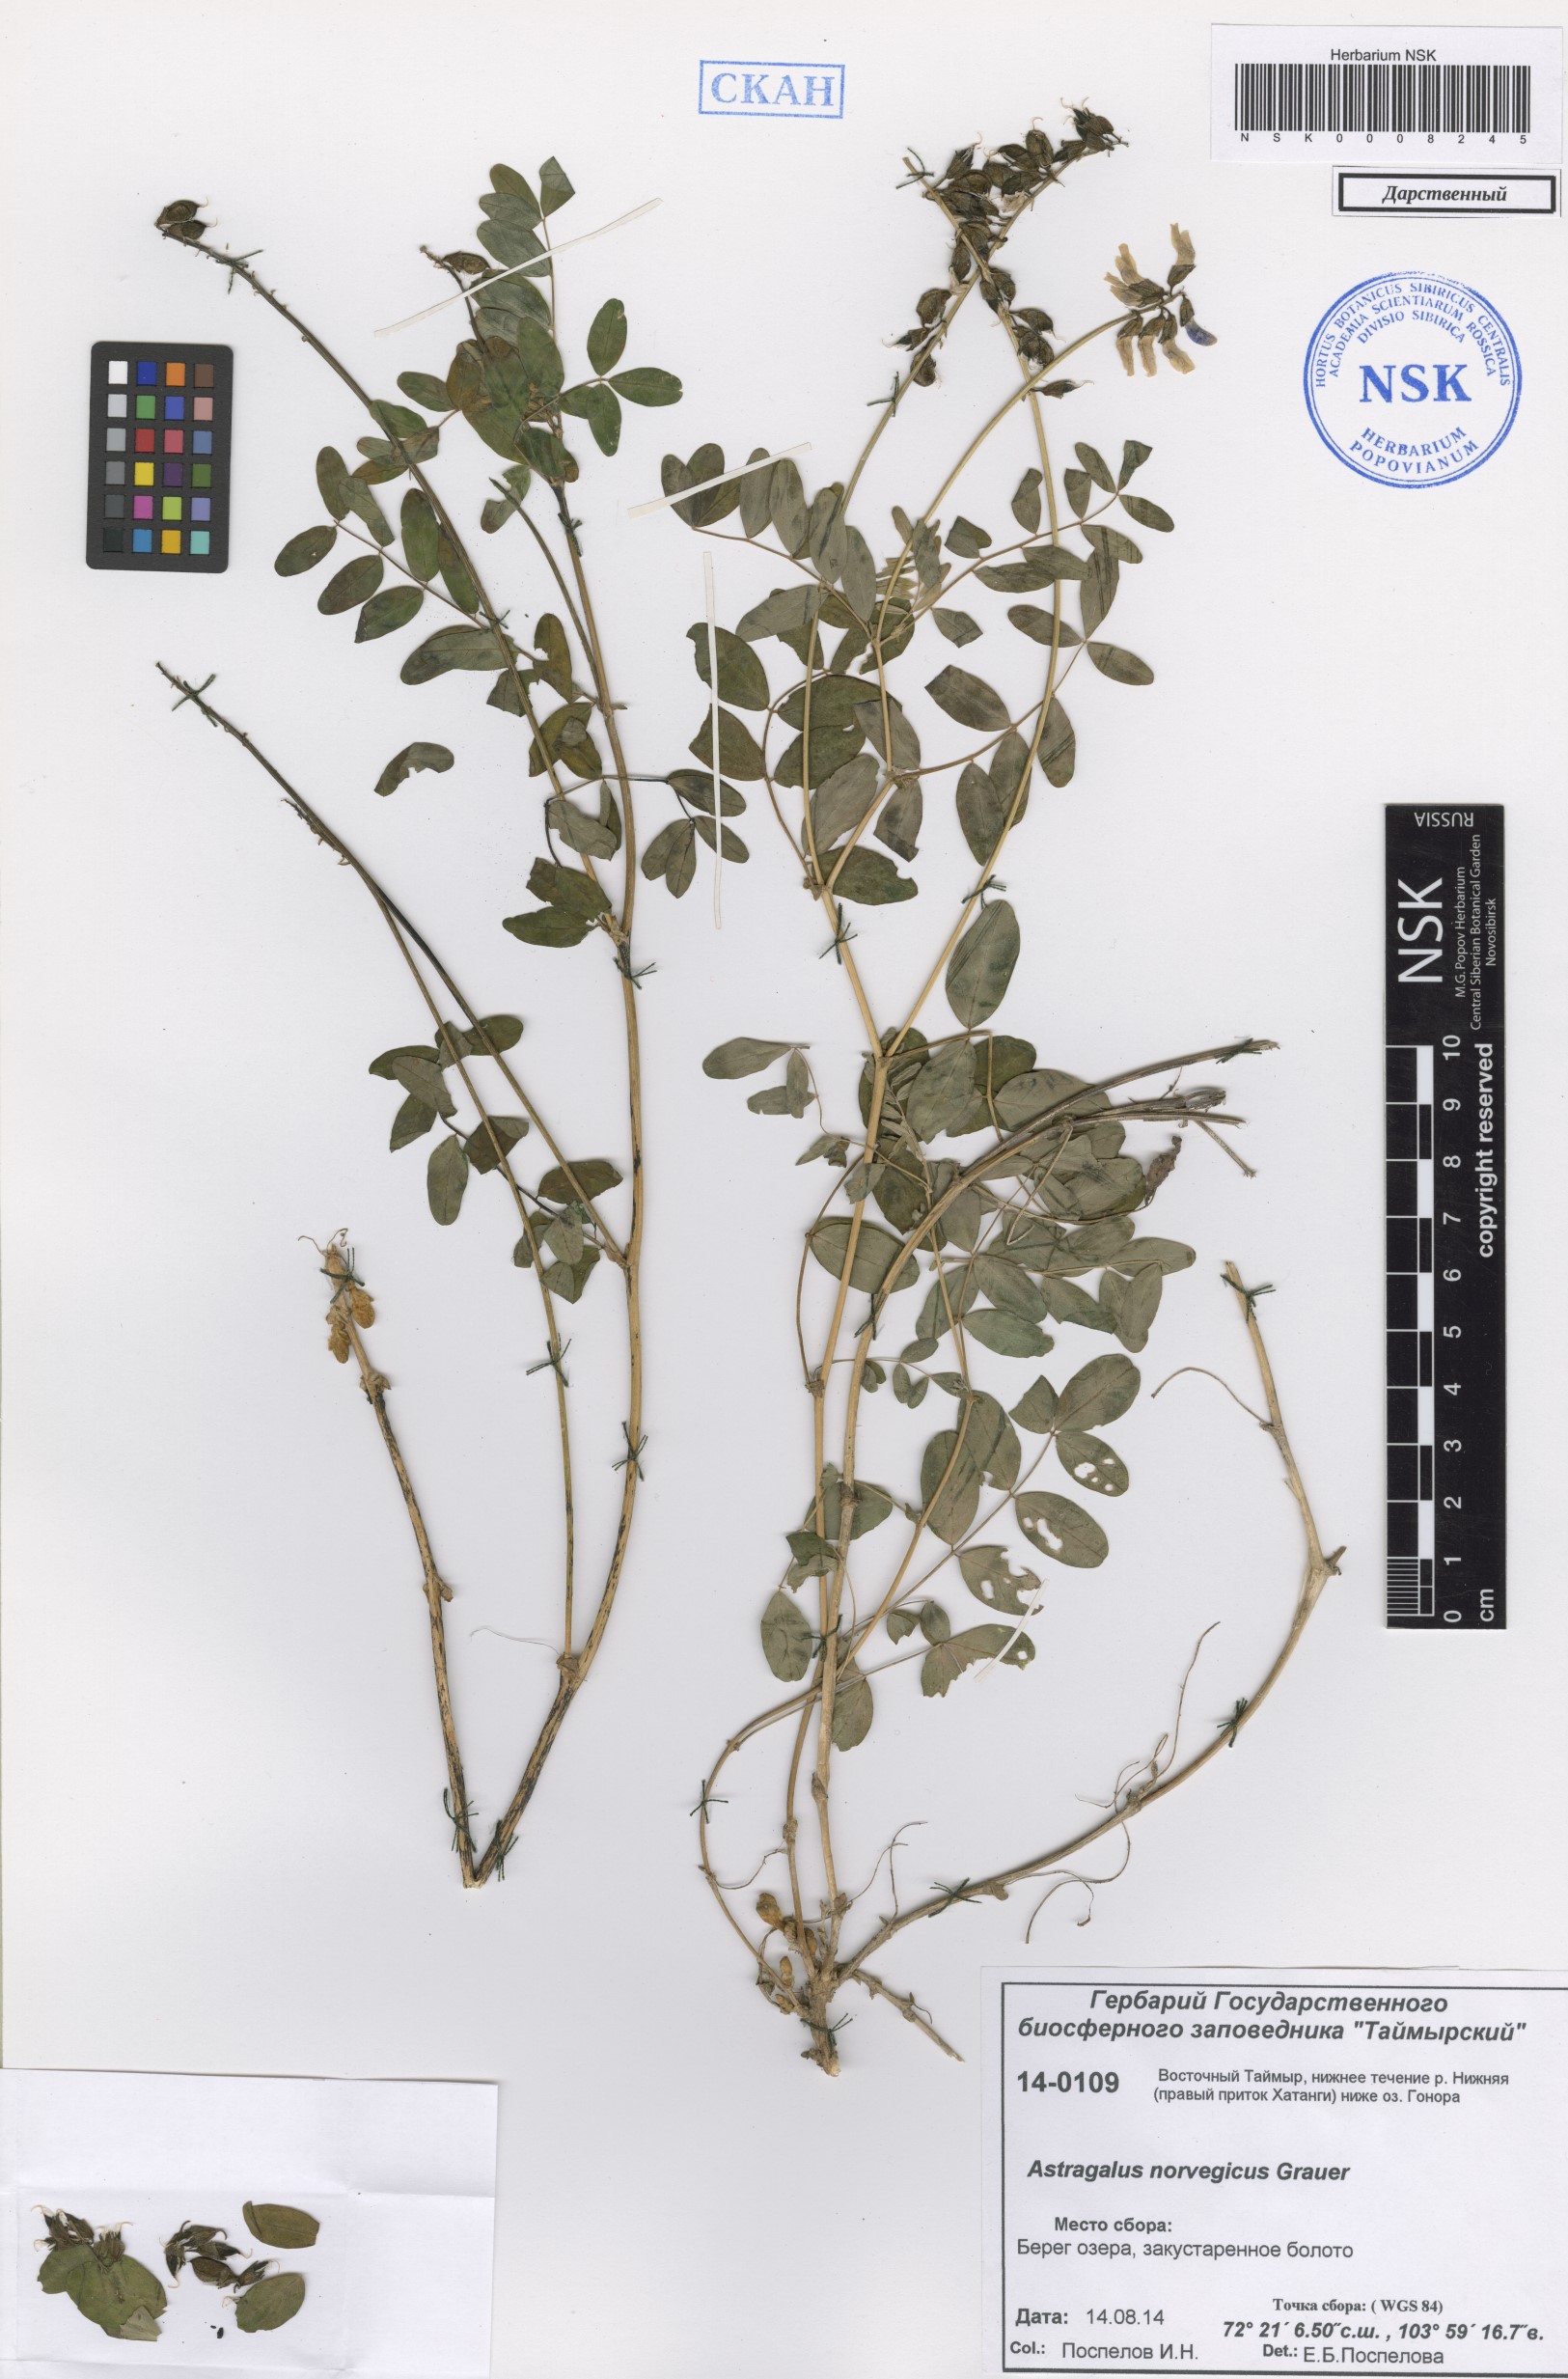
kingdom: Plantae
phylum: Tracheophyta
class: Magnoliopsida
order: Fabales
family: Fabaceae
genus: Astragalus
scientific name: Astragalus norvegicus
